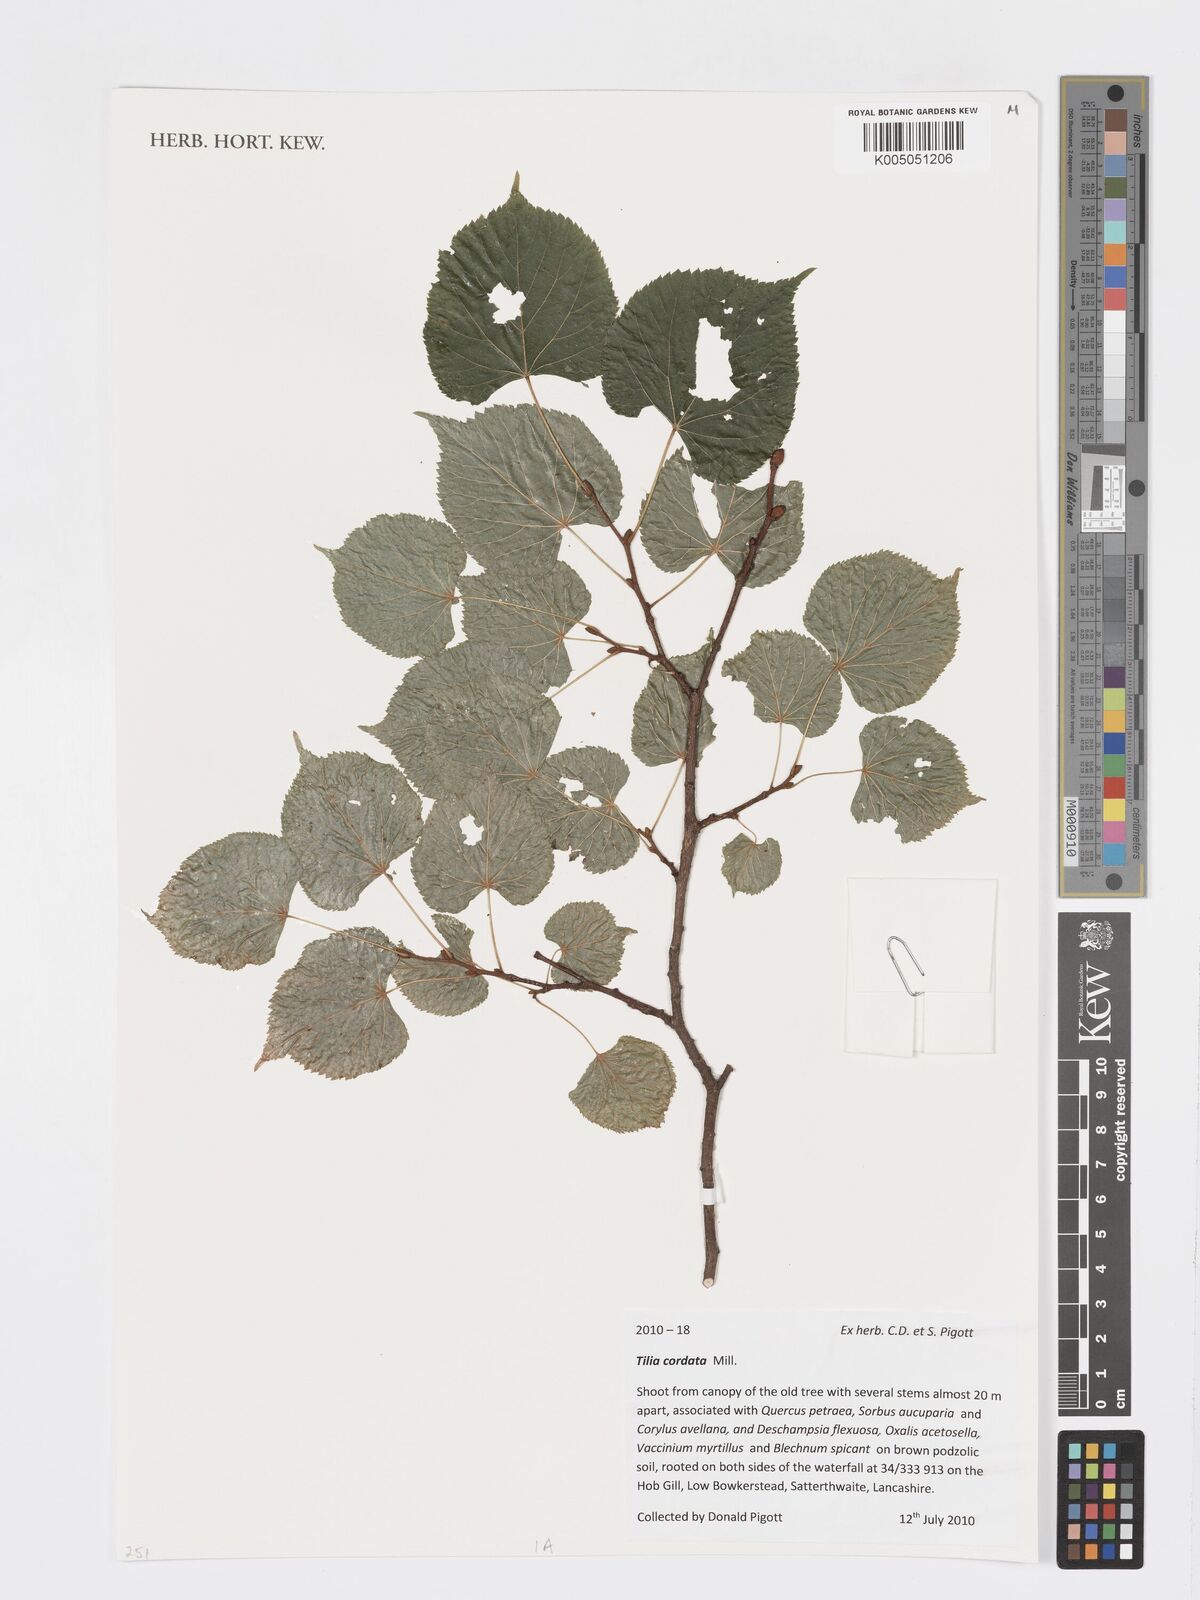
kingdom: Plantae
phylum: Tracheophyta
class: Magnoliopsida
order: Malvales
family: Malvaceae
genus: Tilia
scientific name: Tilia cordata
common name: Small-leaved lime
